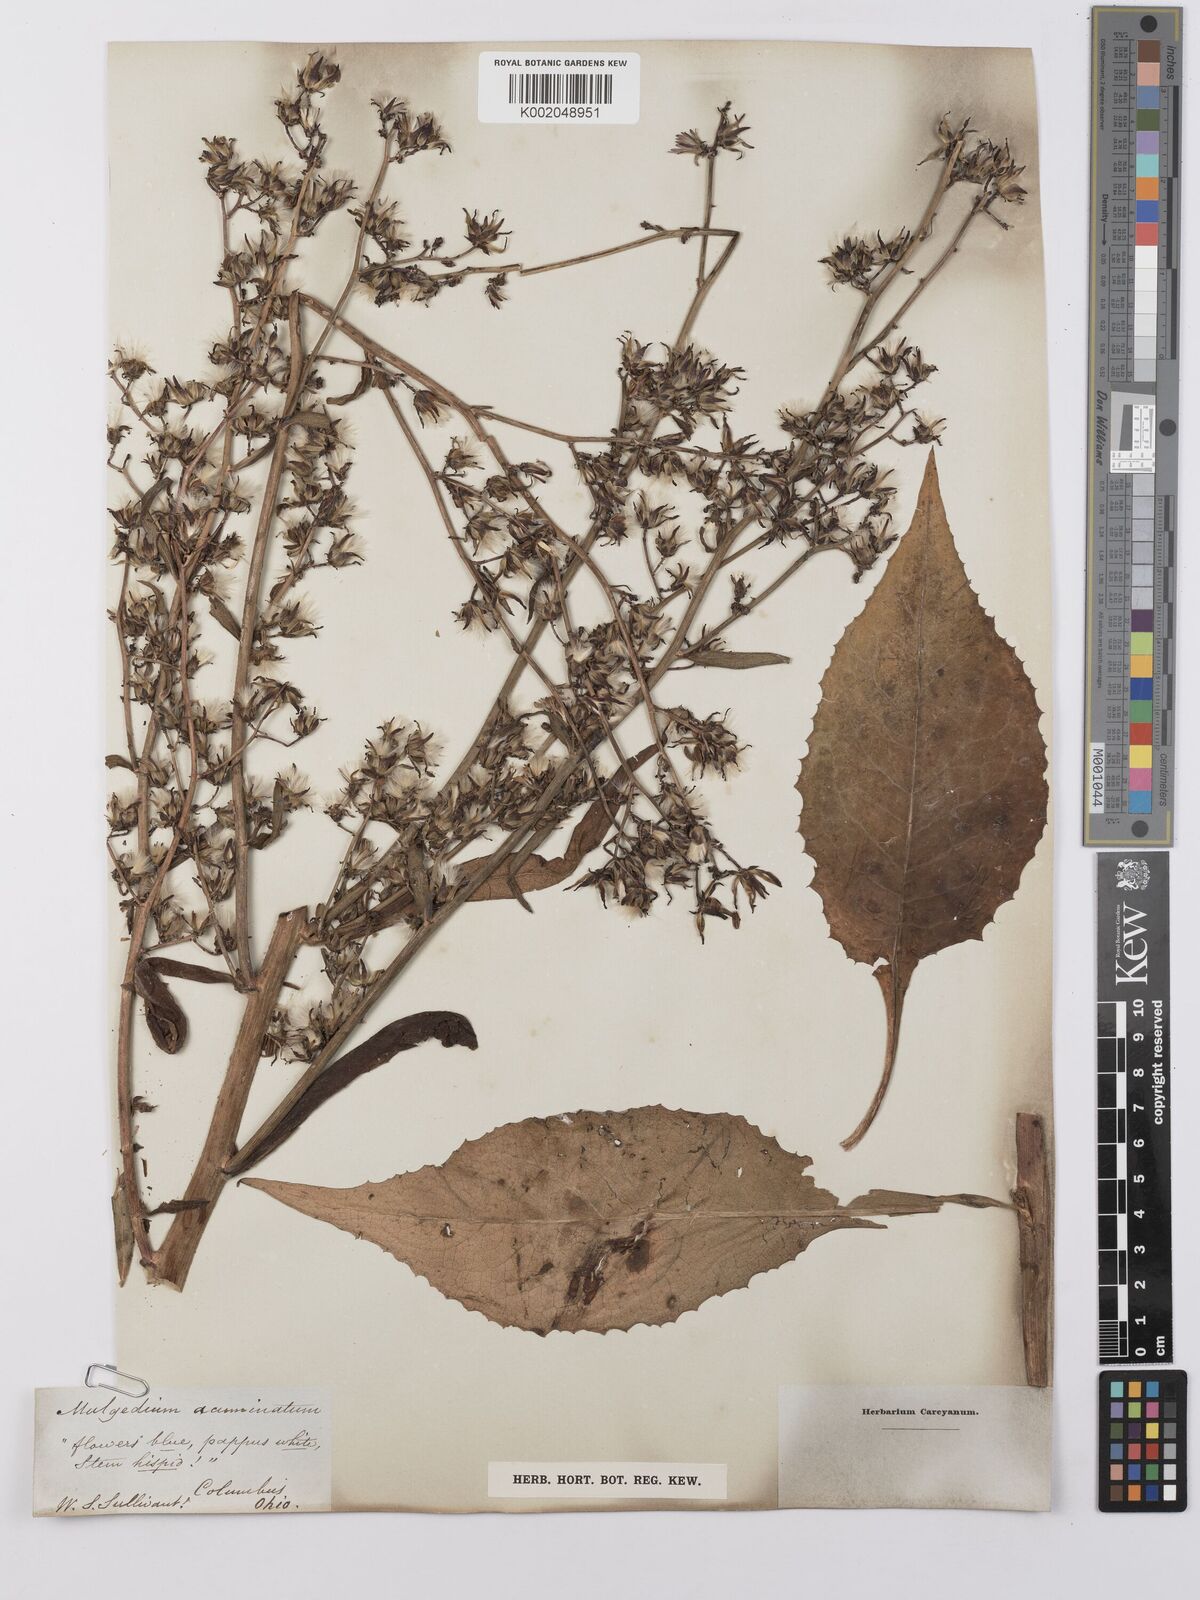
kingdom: Plantae
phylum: Tracheophyta
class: Magnoliopsida
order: Asterales
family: Asteraceae
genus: Lactuca
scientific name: Lactuca
